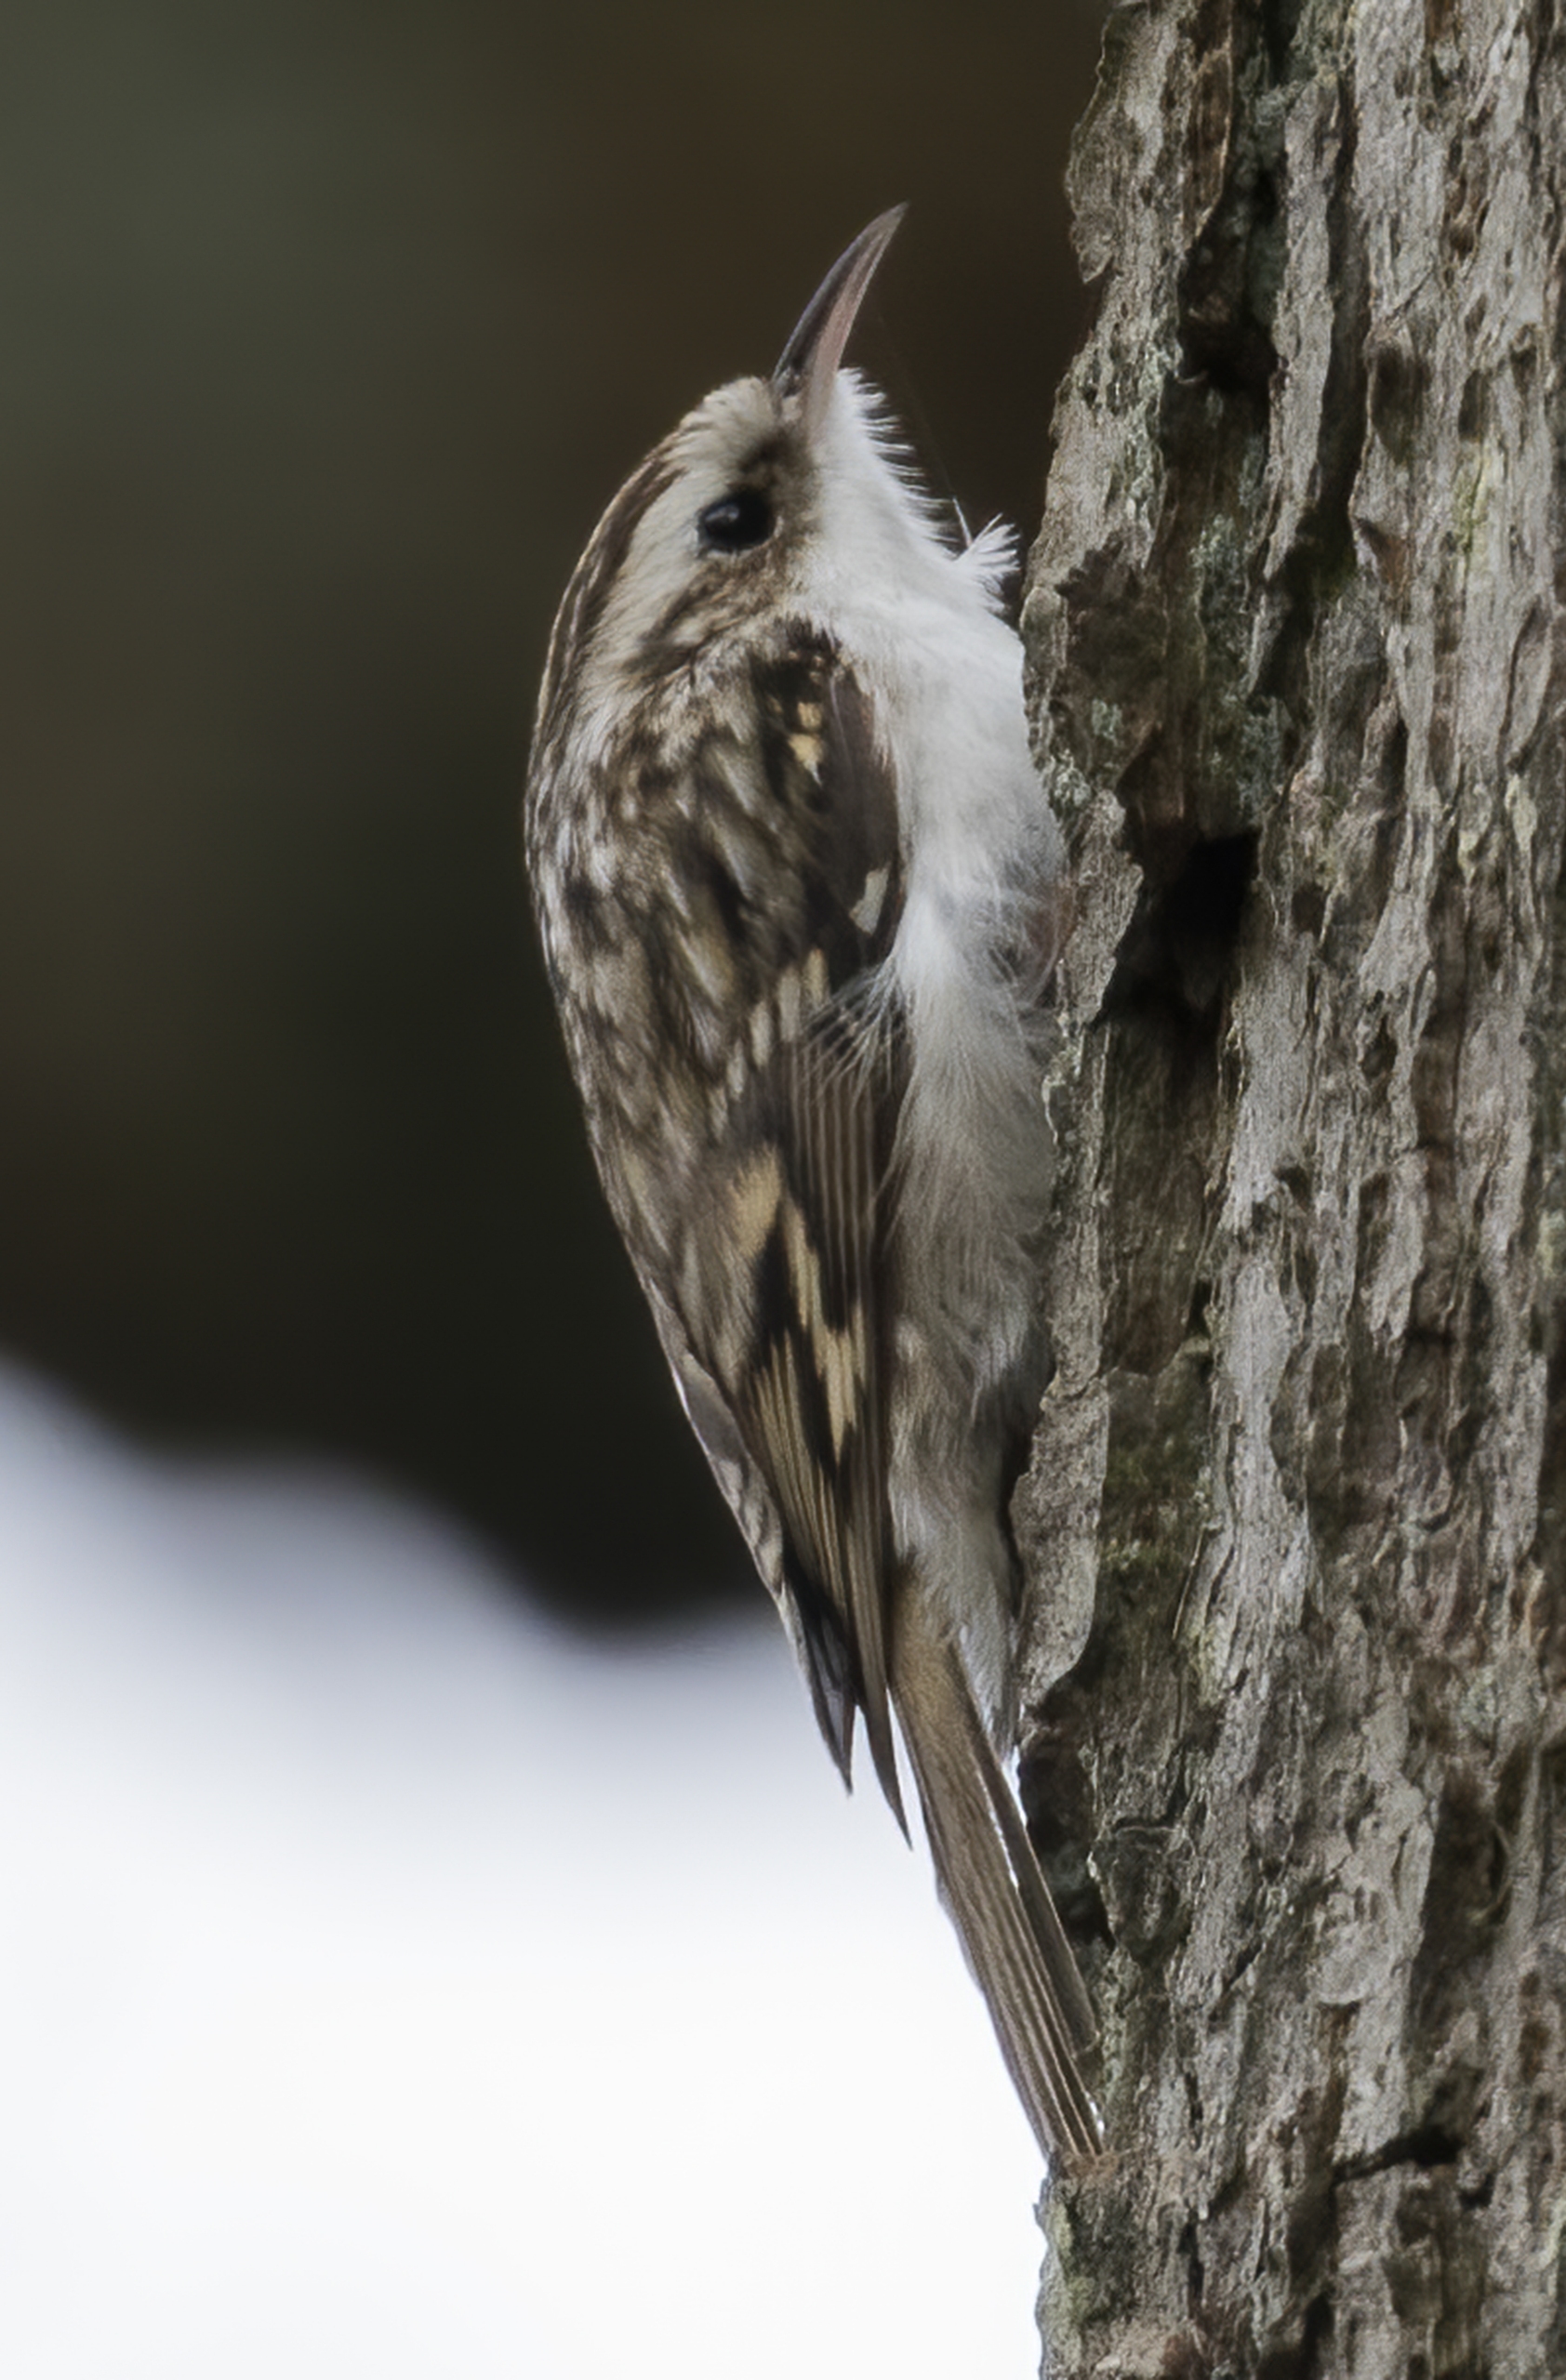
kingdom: Animalia
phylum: Chordata
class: Aves
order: Passeriformes
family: Certhiidae
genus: Certhia
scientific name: Certhia familiaris
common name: Træløber
